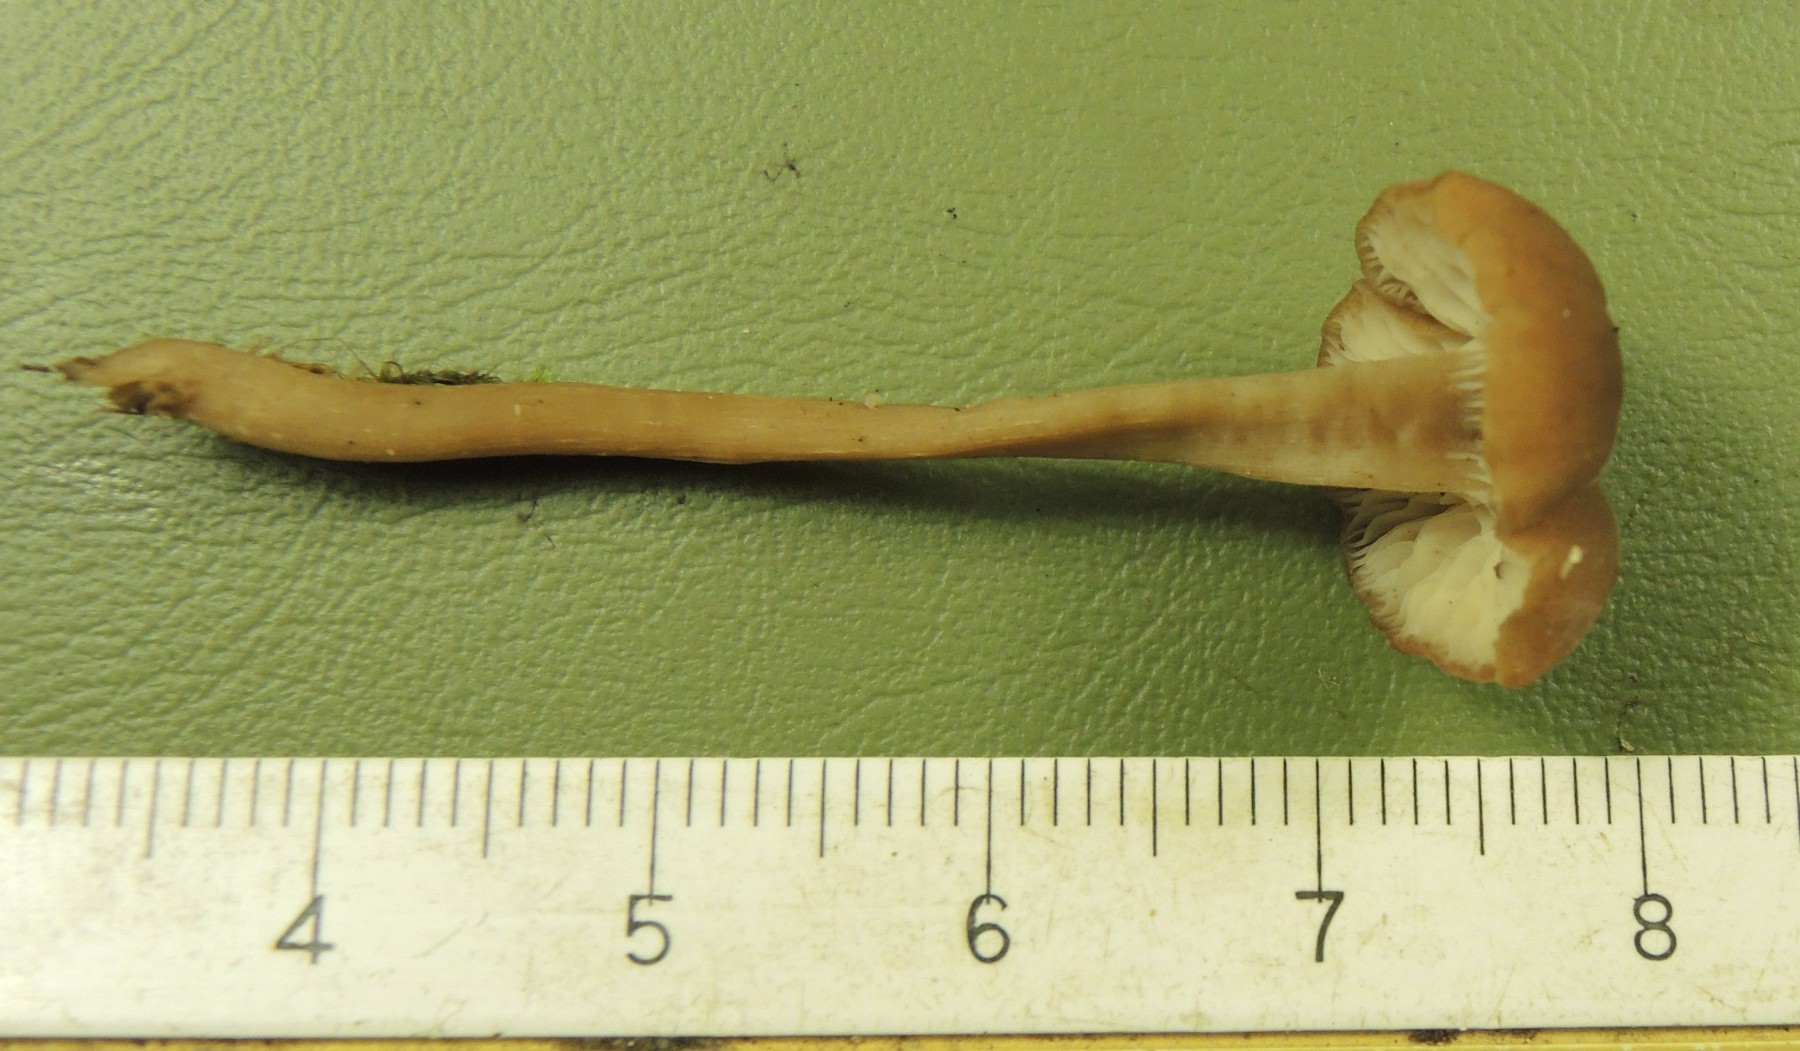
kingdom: Fungi
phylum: Basidiomycota
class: Agaricomycetes
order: Agaricales
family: Callistosporiaceae
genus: Pseudolaccaria
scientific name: Pseudolaccaria pachyphylla
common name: hvælvet tykblad
